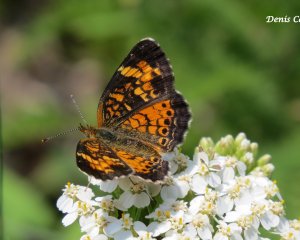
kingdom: Animalia
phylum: Arthropoda
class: Insecta
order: Lepidoptera
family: Nymphalidae
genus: Phyciodes
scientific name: Phyciodes tharos
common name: Northern Crescent
